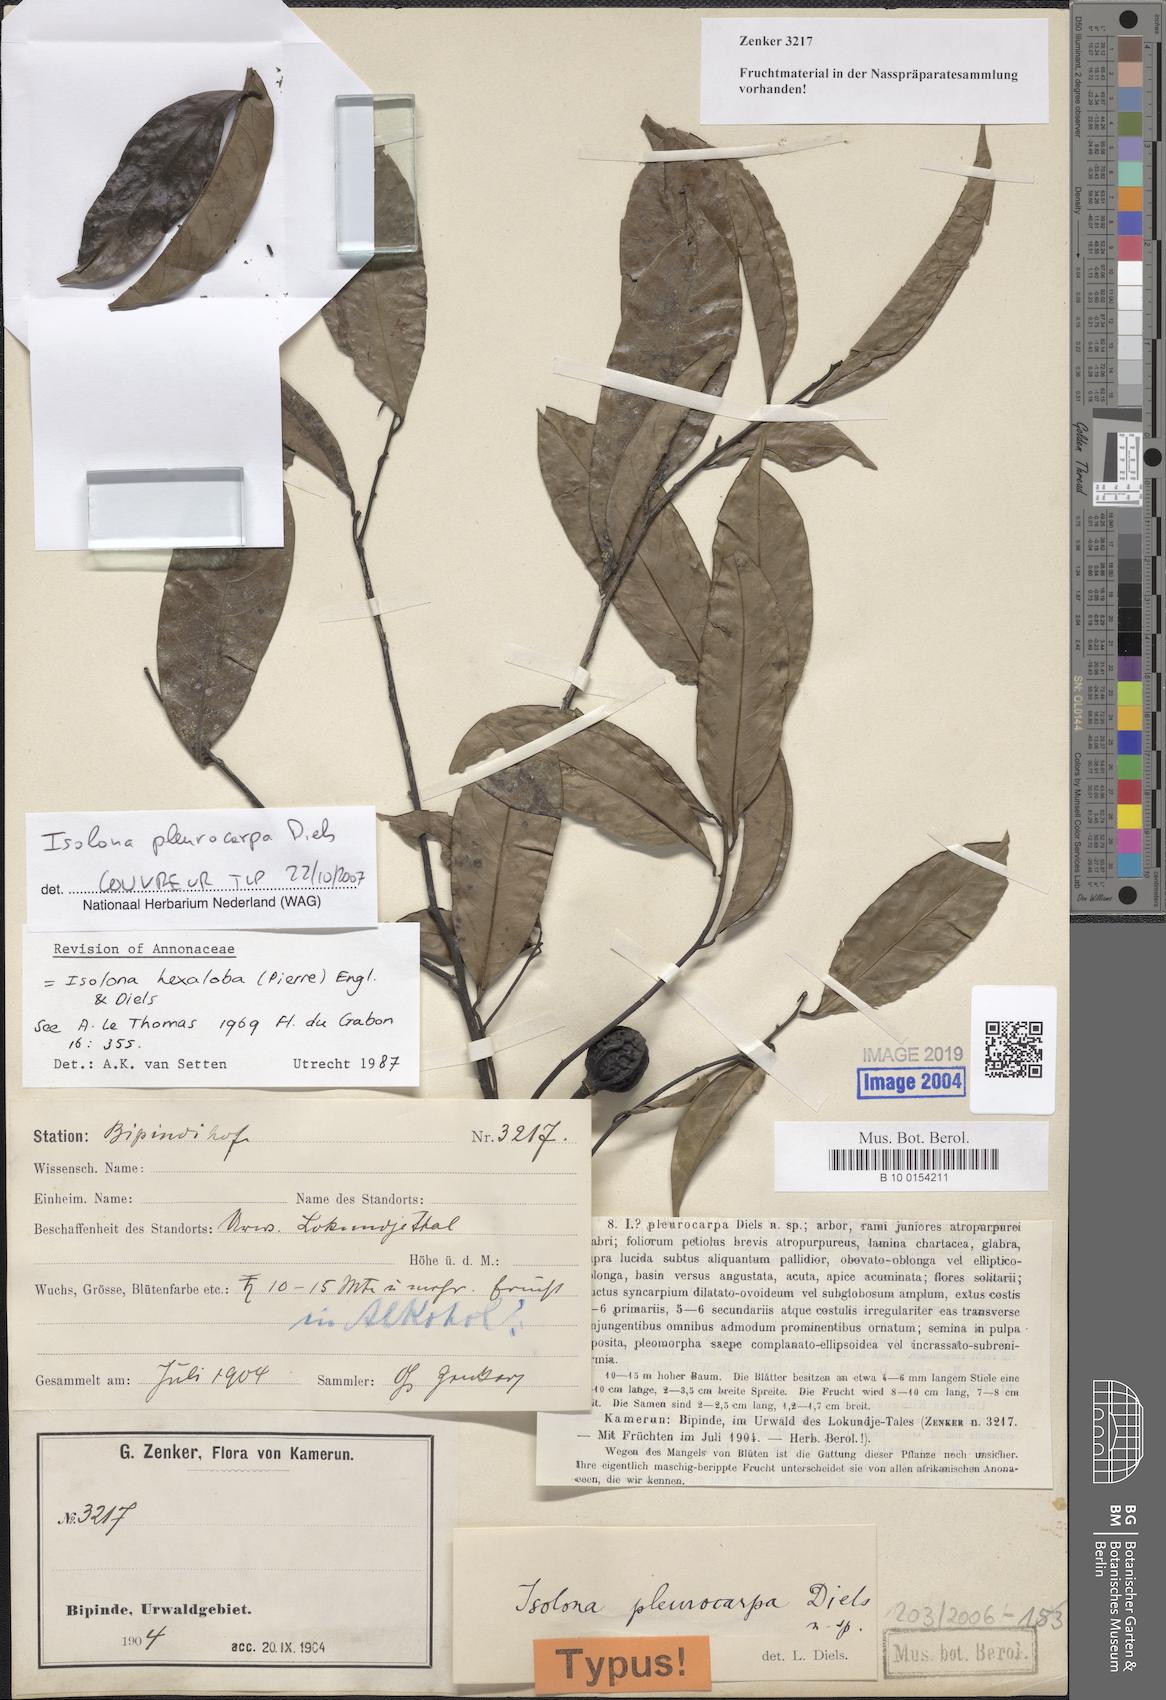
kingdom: Plantae
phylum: Tracheophyta
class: Magnoliopsida
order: Magnoliales
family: Annonaceae
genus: Isolona
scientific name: Isolona hexaloba
